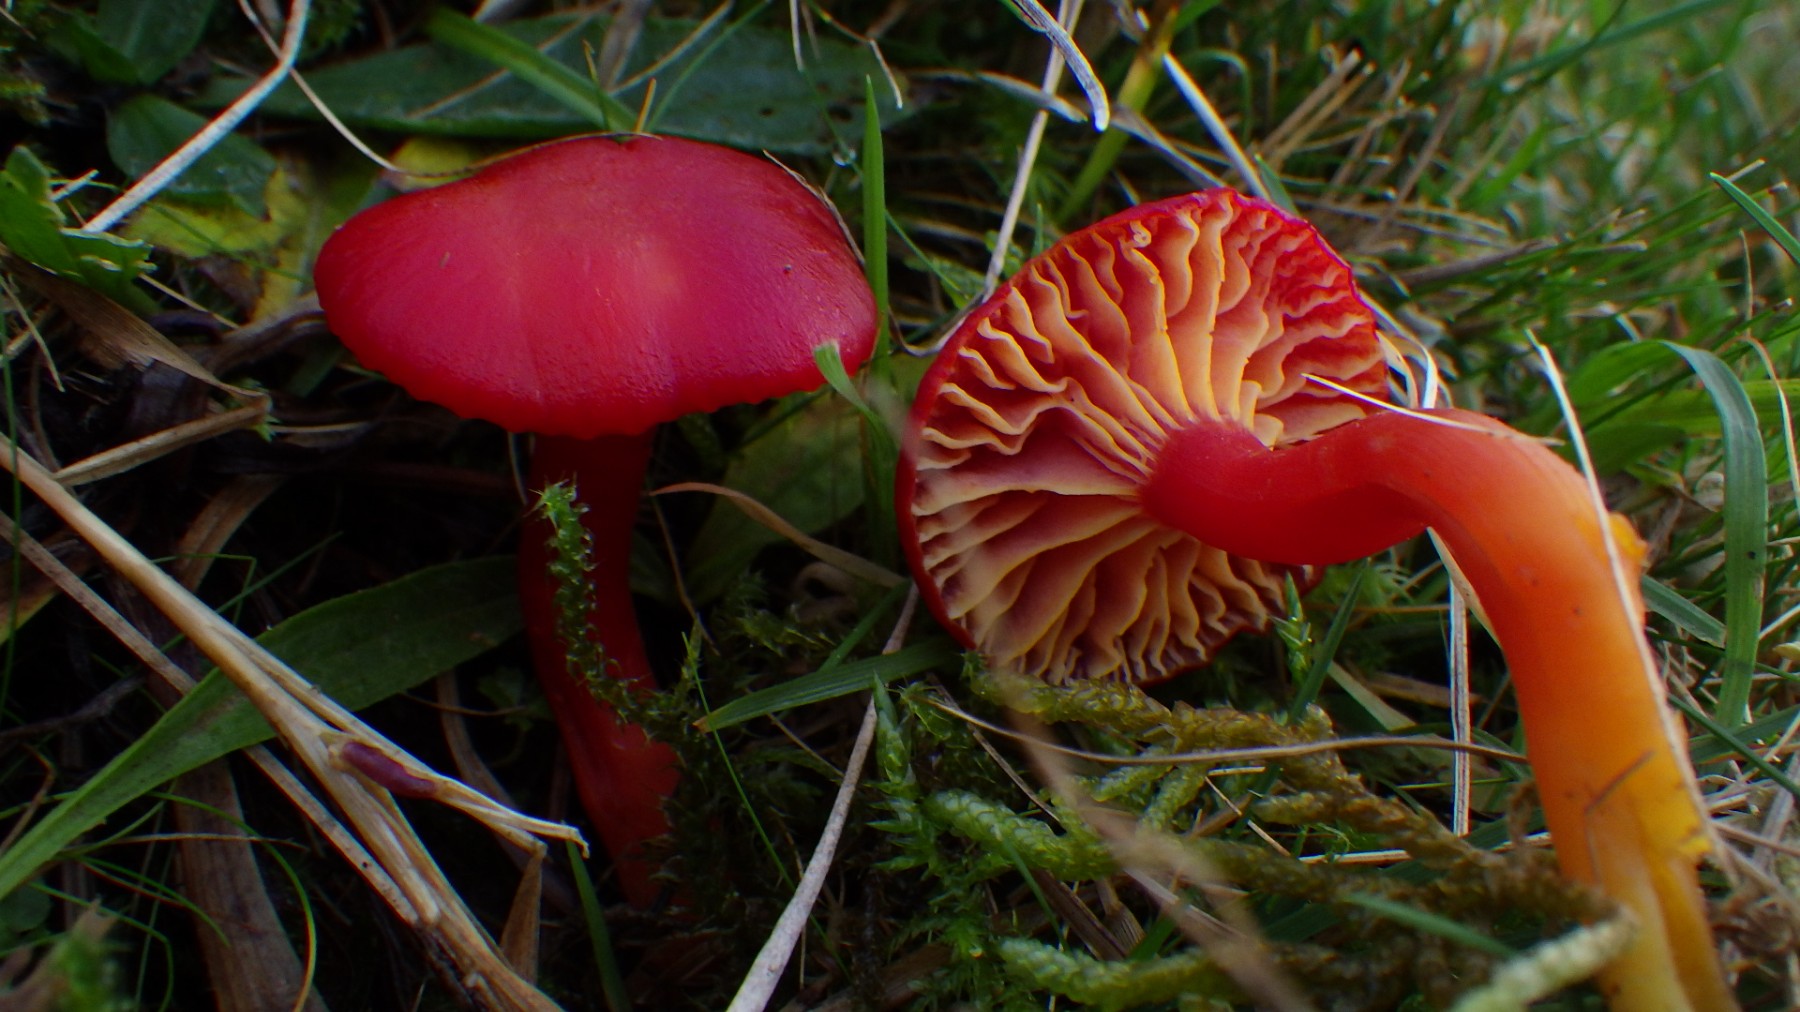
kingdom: Fungi
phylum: Basidiomycota
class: Agaricomycetes
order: Agaricales
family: Hygrophoraceae
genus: Hygrocybe
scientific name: Hygrocybe coccinea
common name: cinnober-vokshat
